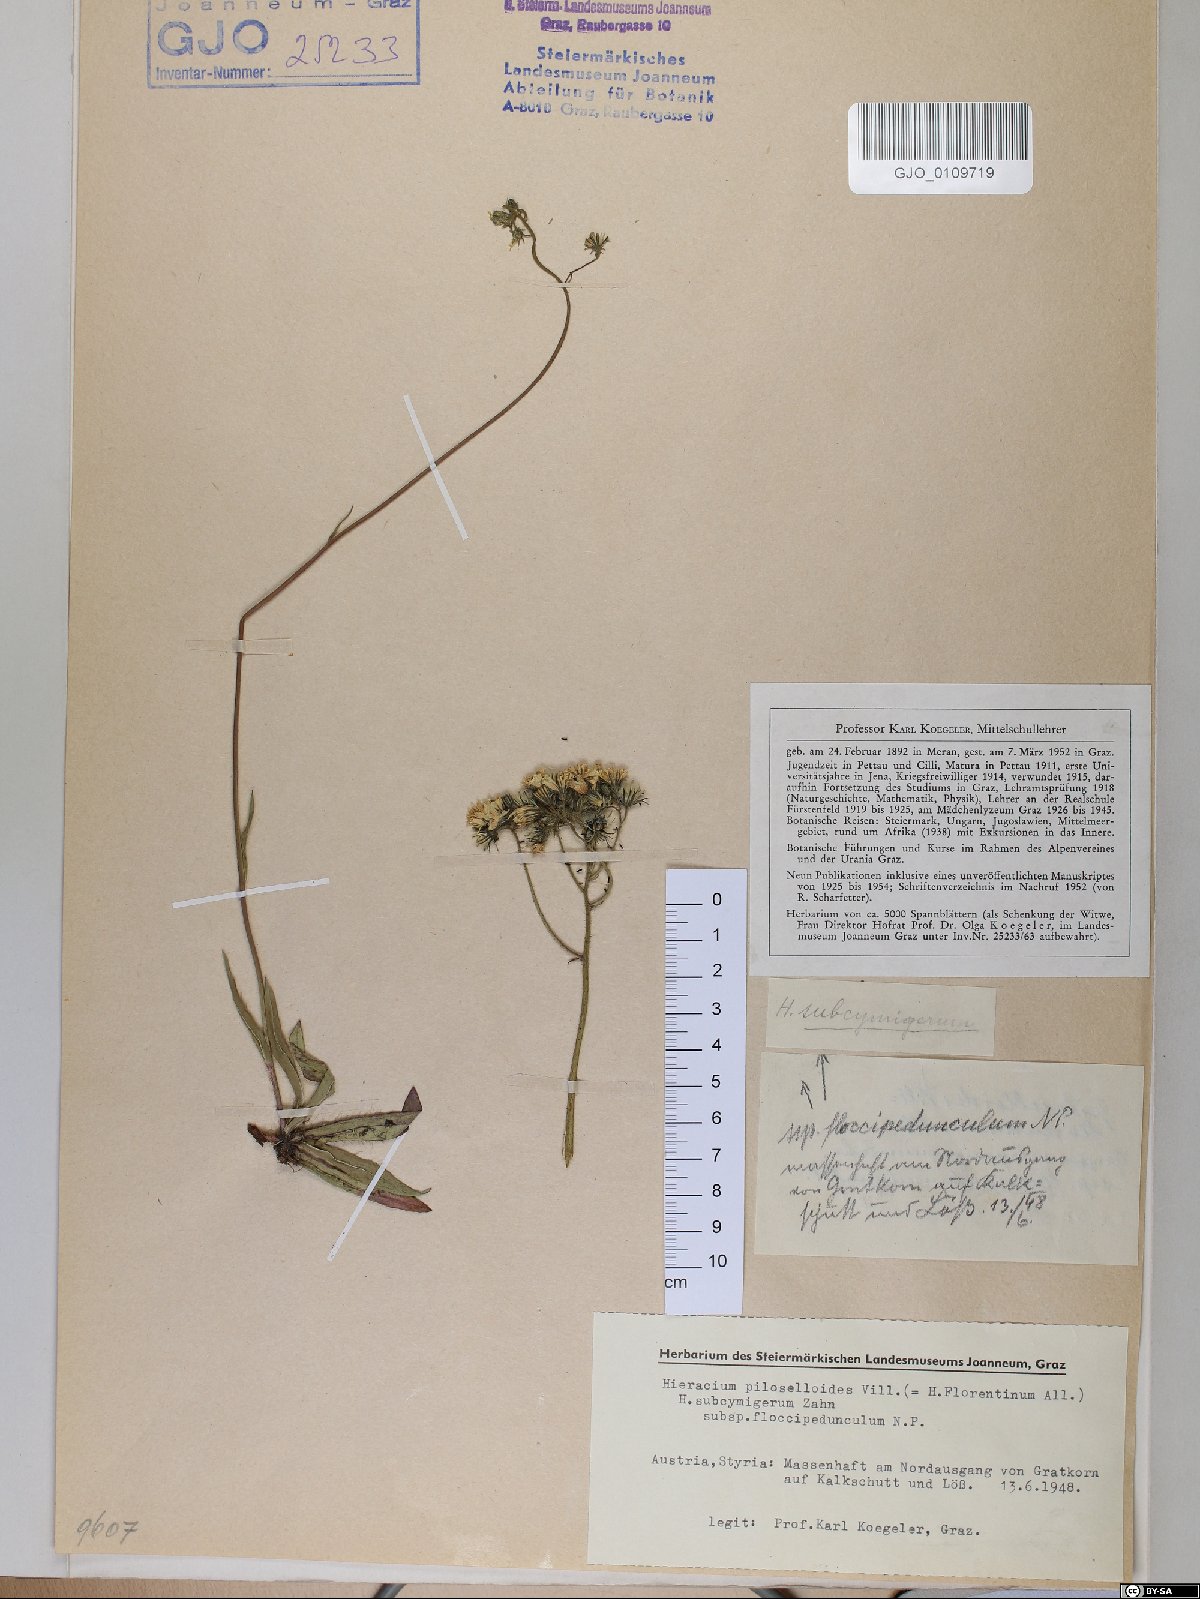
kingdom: Plantae
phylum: Tracheophyta
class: Magnoliopsida
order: Asterales
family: Asteraceae
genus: Pilosella
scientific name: Pilosella piloselloides
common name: Glaucous king-devil
